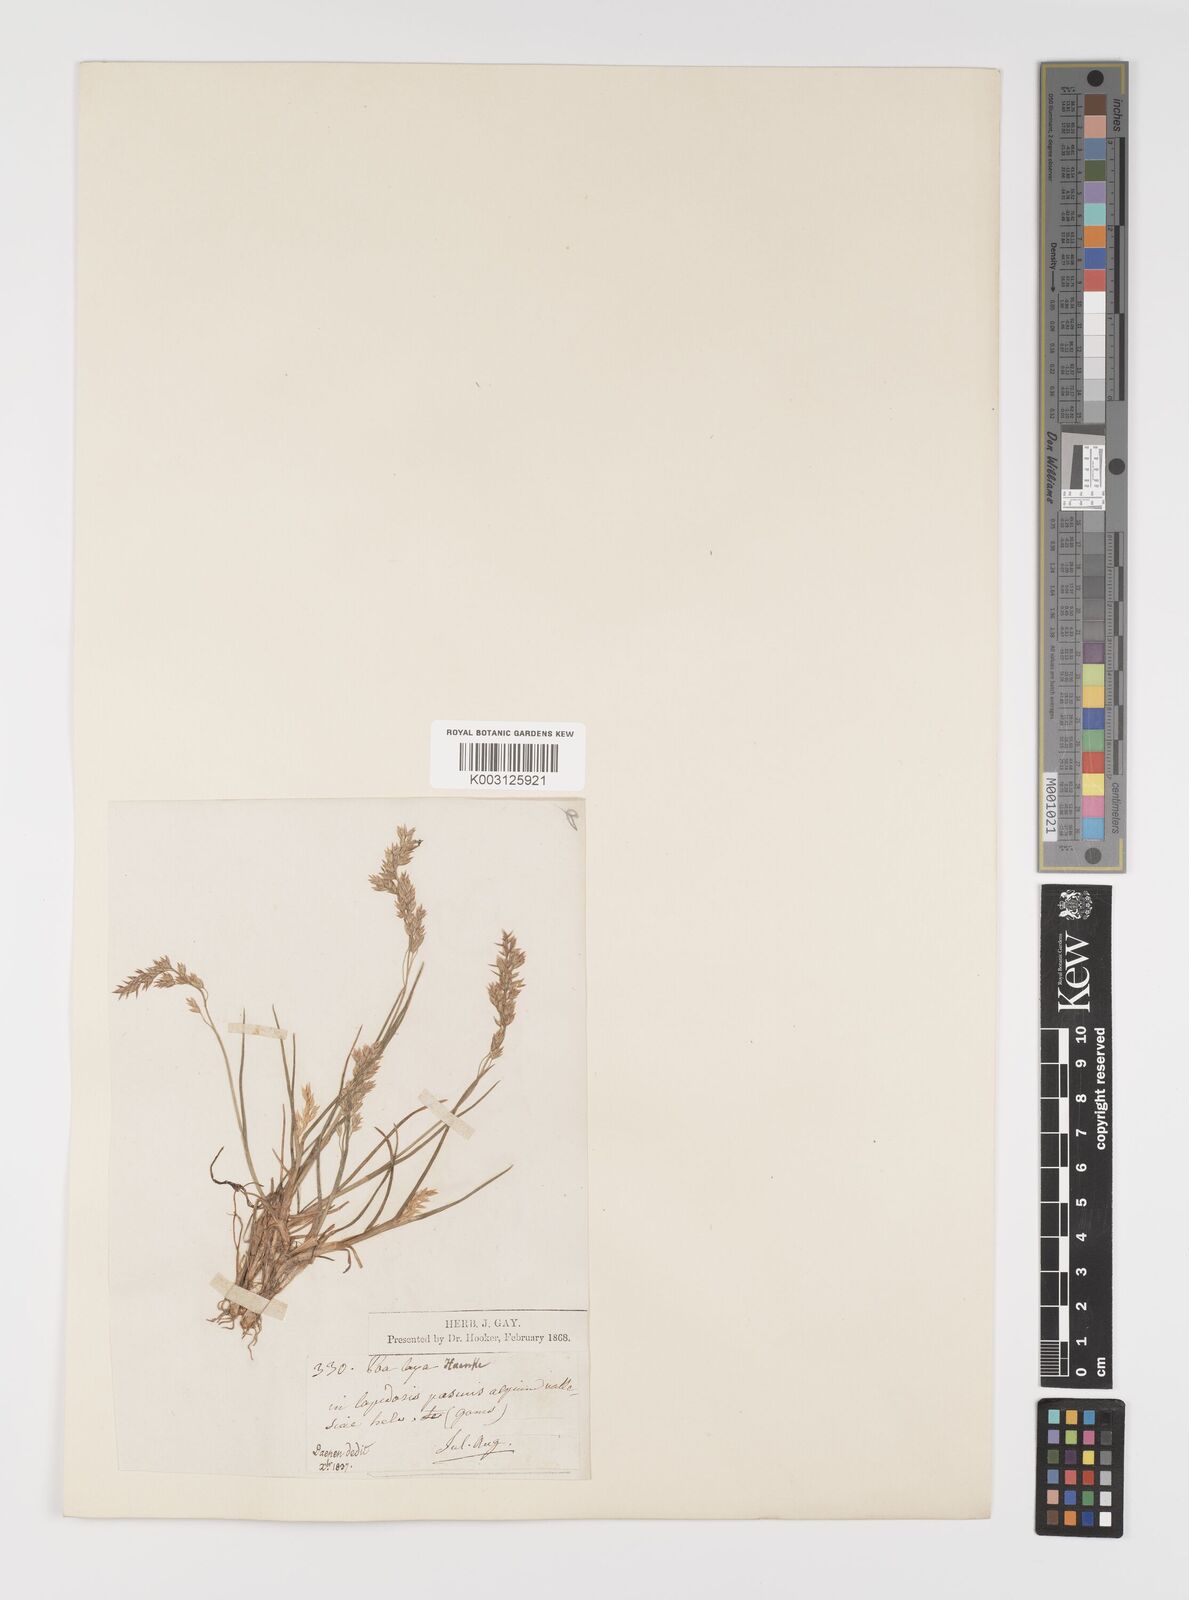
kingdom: Plantae
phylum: Tracheophyta
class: Liliopsida
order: Poales
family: Poaceae
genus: Poa
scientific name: Poa laxa
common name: Lax bluegrass
